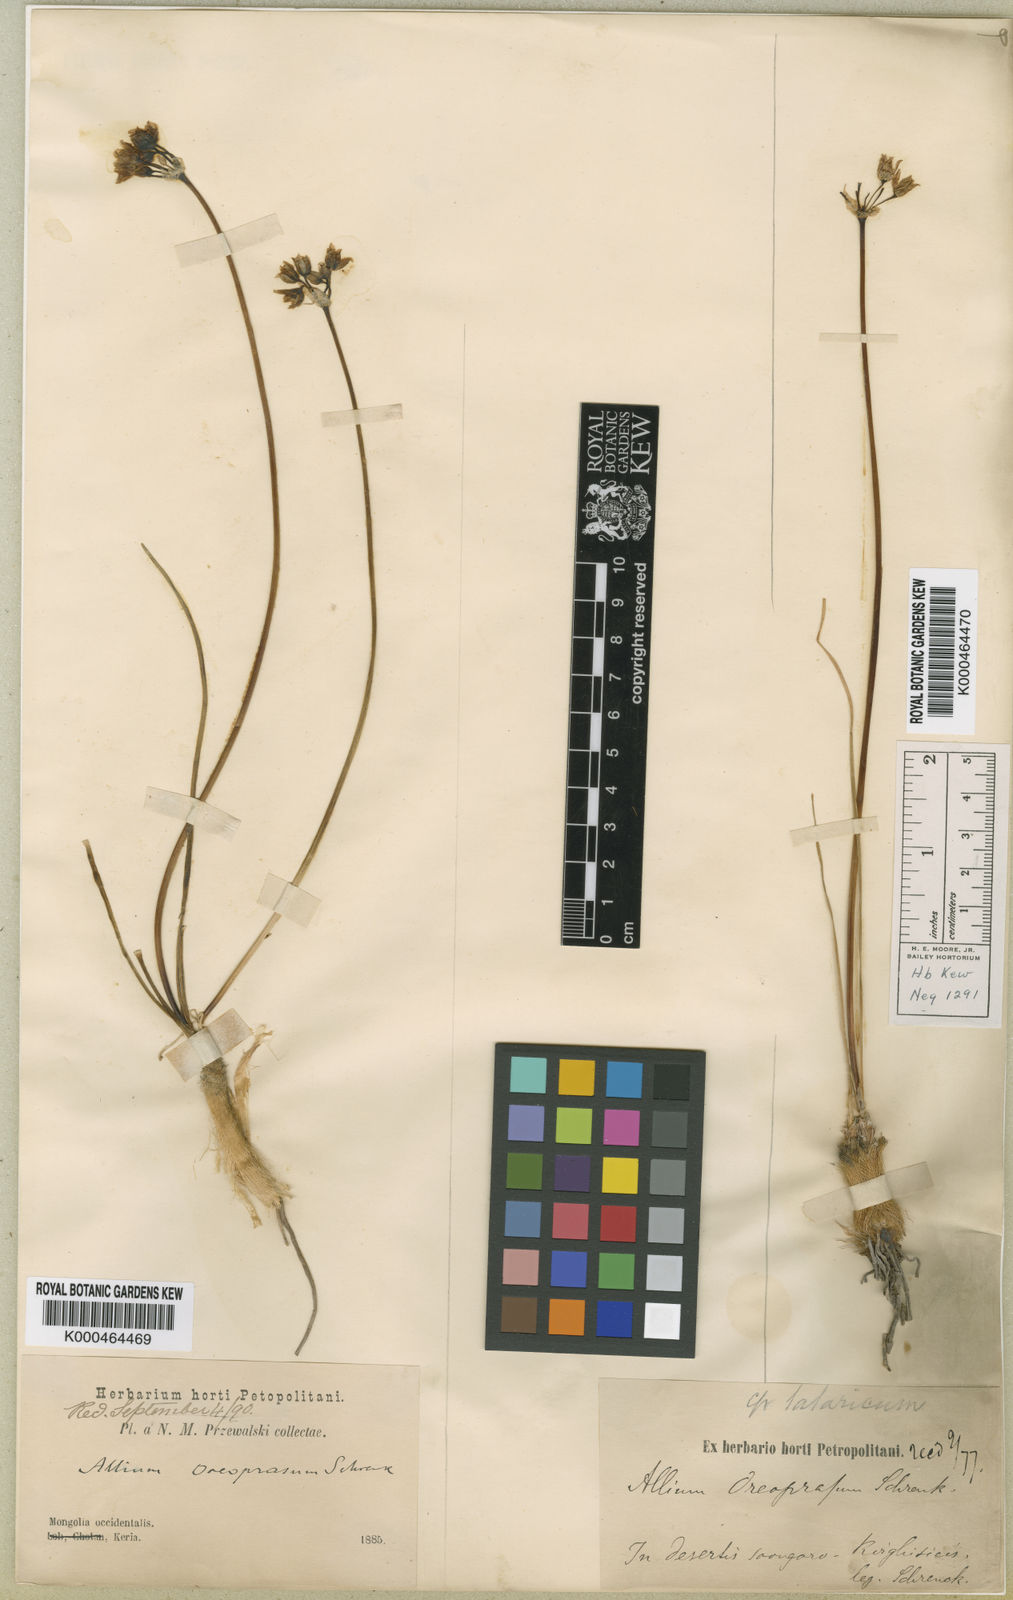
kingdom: Plantae
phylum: Tracheophyta
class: Liliopsida
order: Asparagales
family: Amaryllidaceae
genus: Allium
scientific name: Allium oreoprasum
